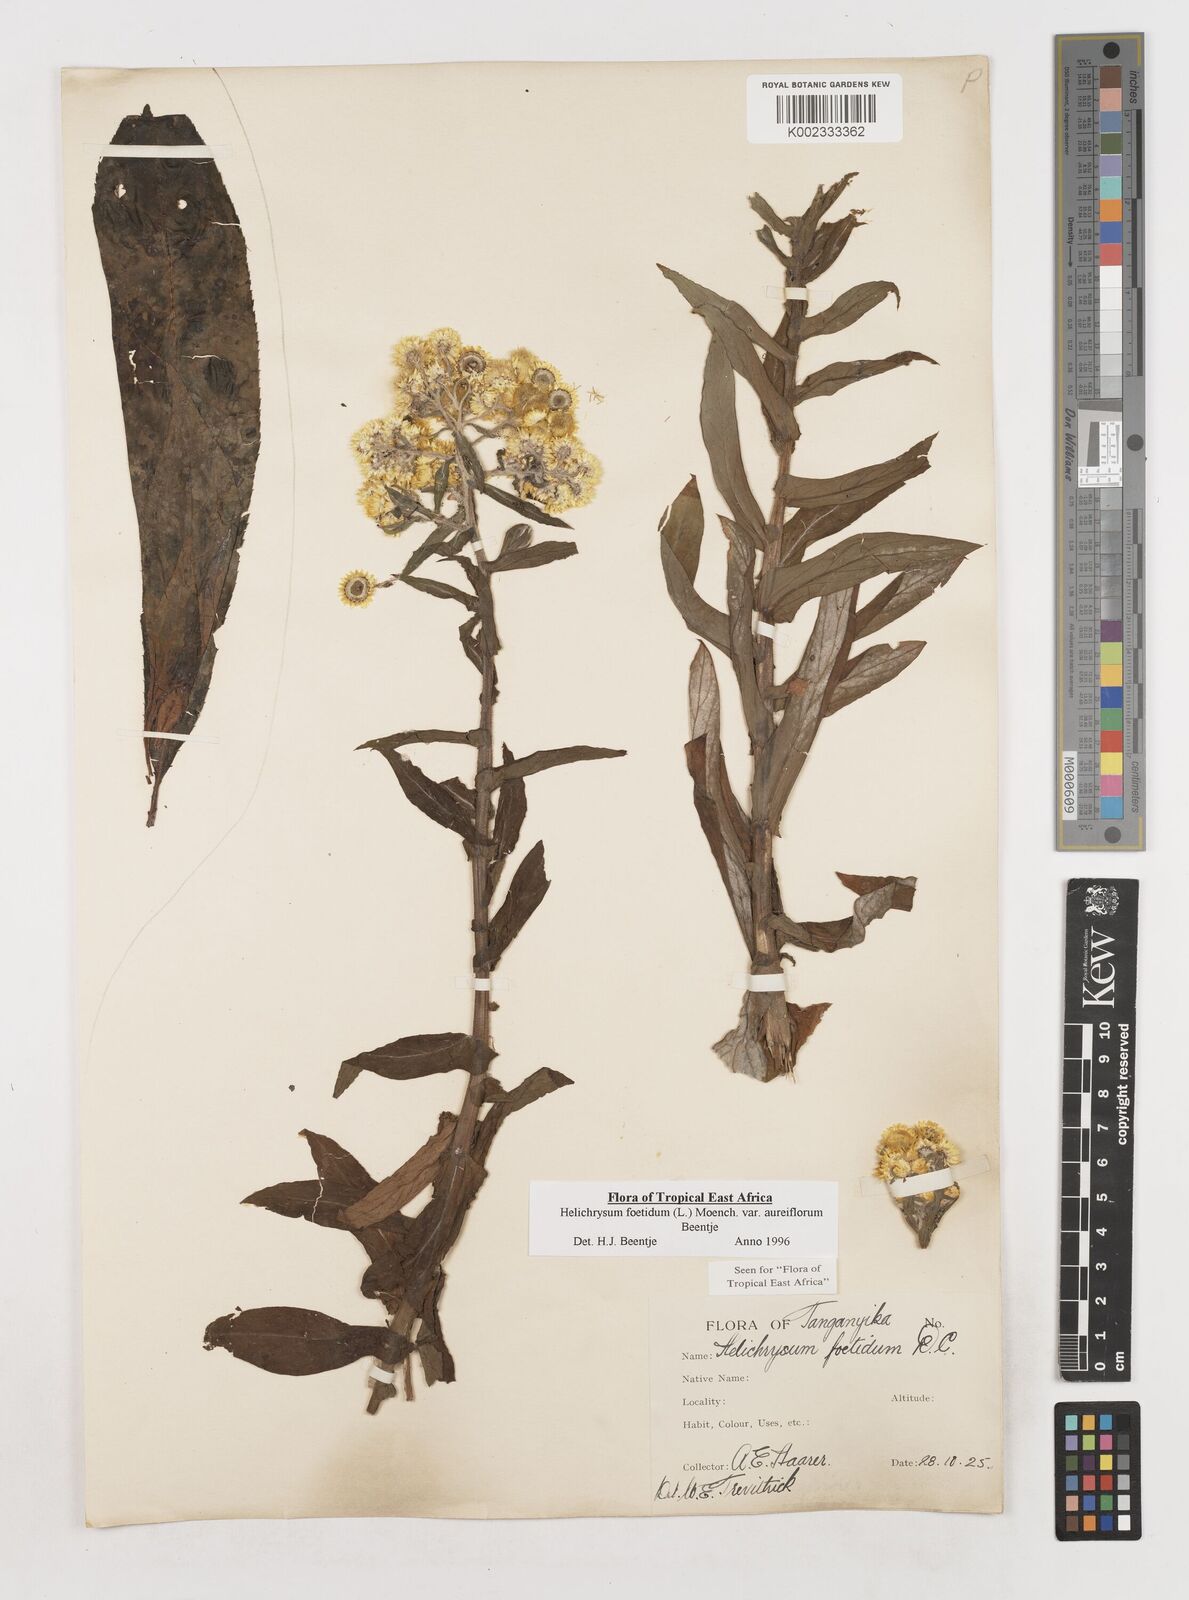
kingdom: Plantae
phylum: Tracheophyta
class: Magnoliopsida
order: Asterales
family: Asteraceae
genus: Helichrysum
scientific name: Helichrysum foetidum
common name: Stinking everlasting
